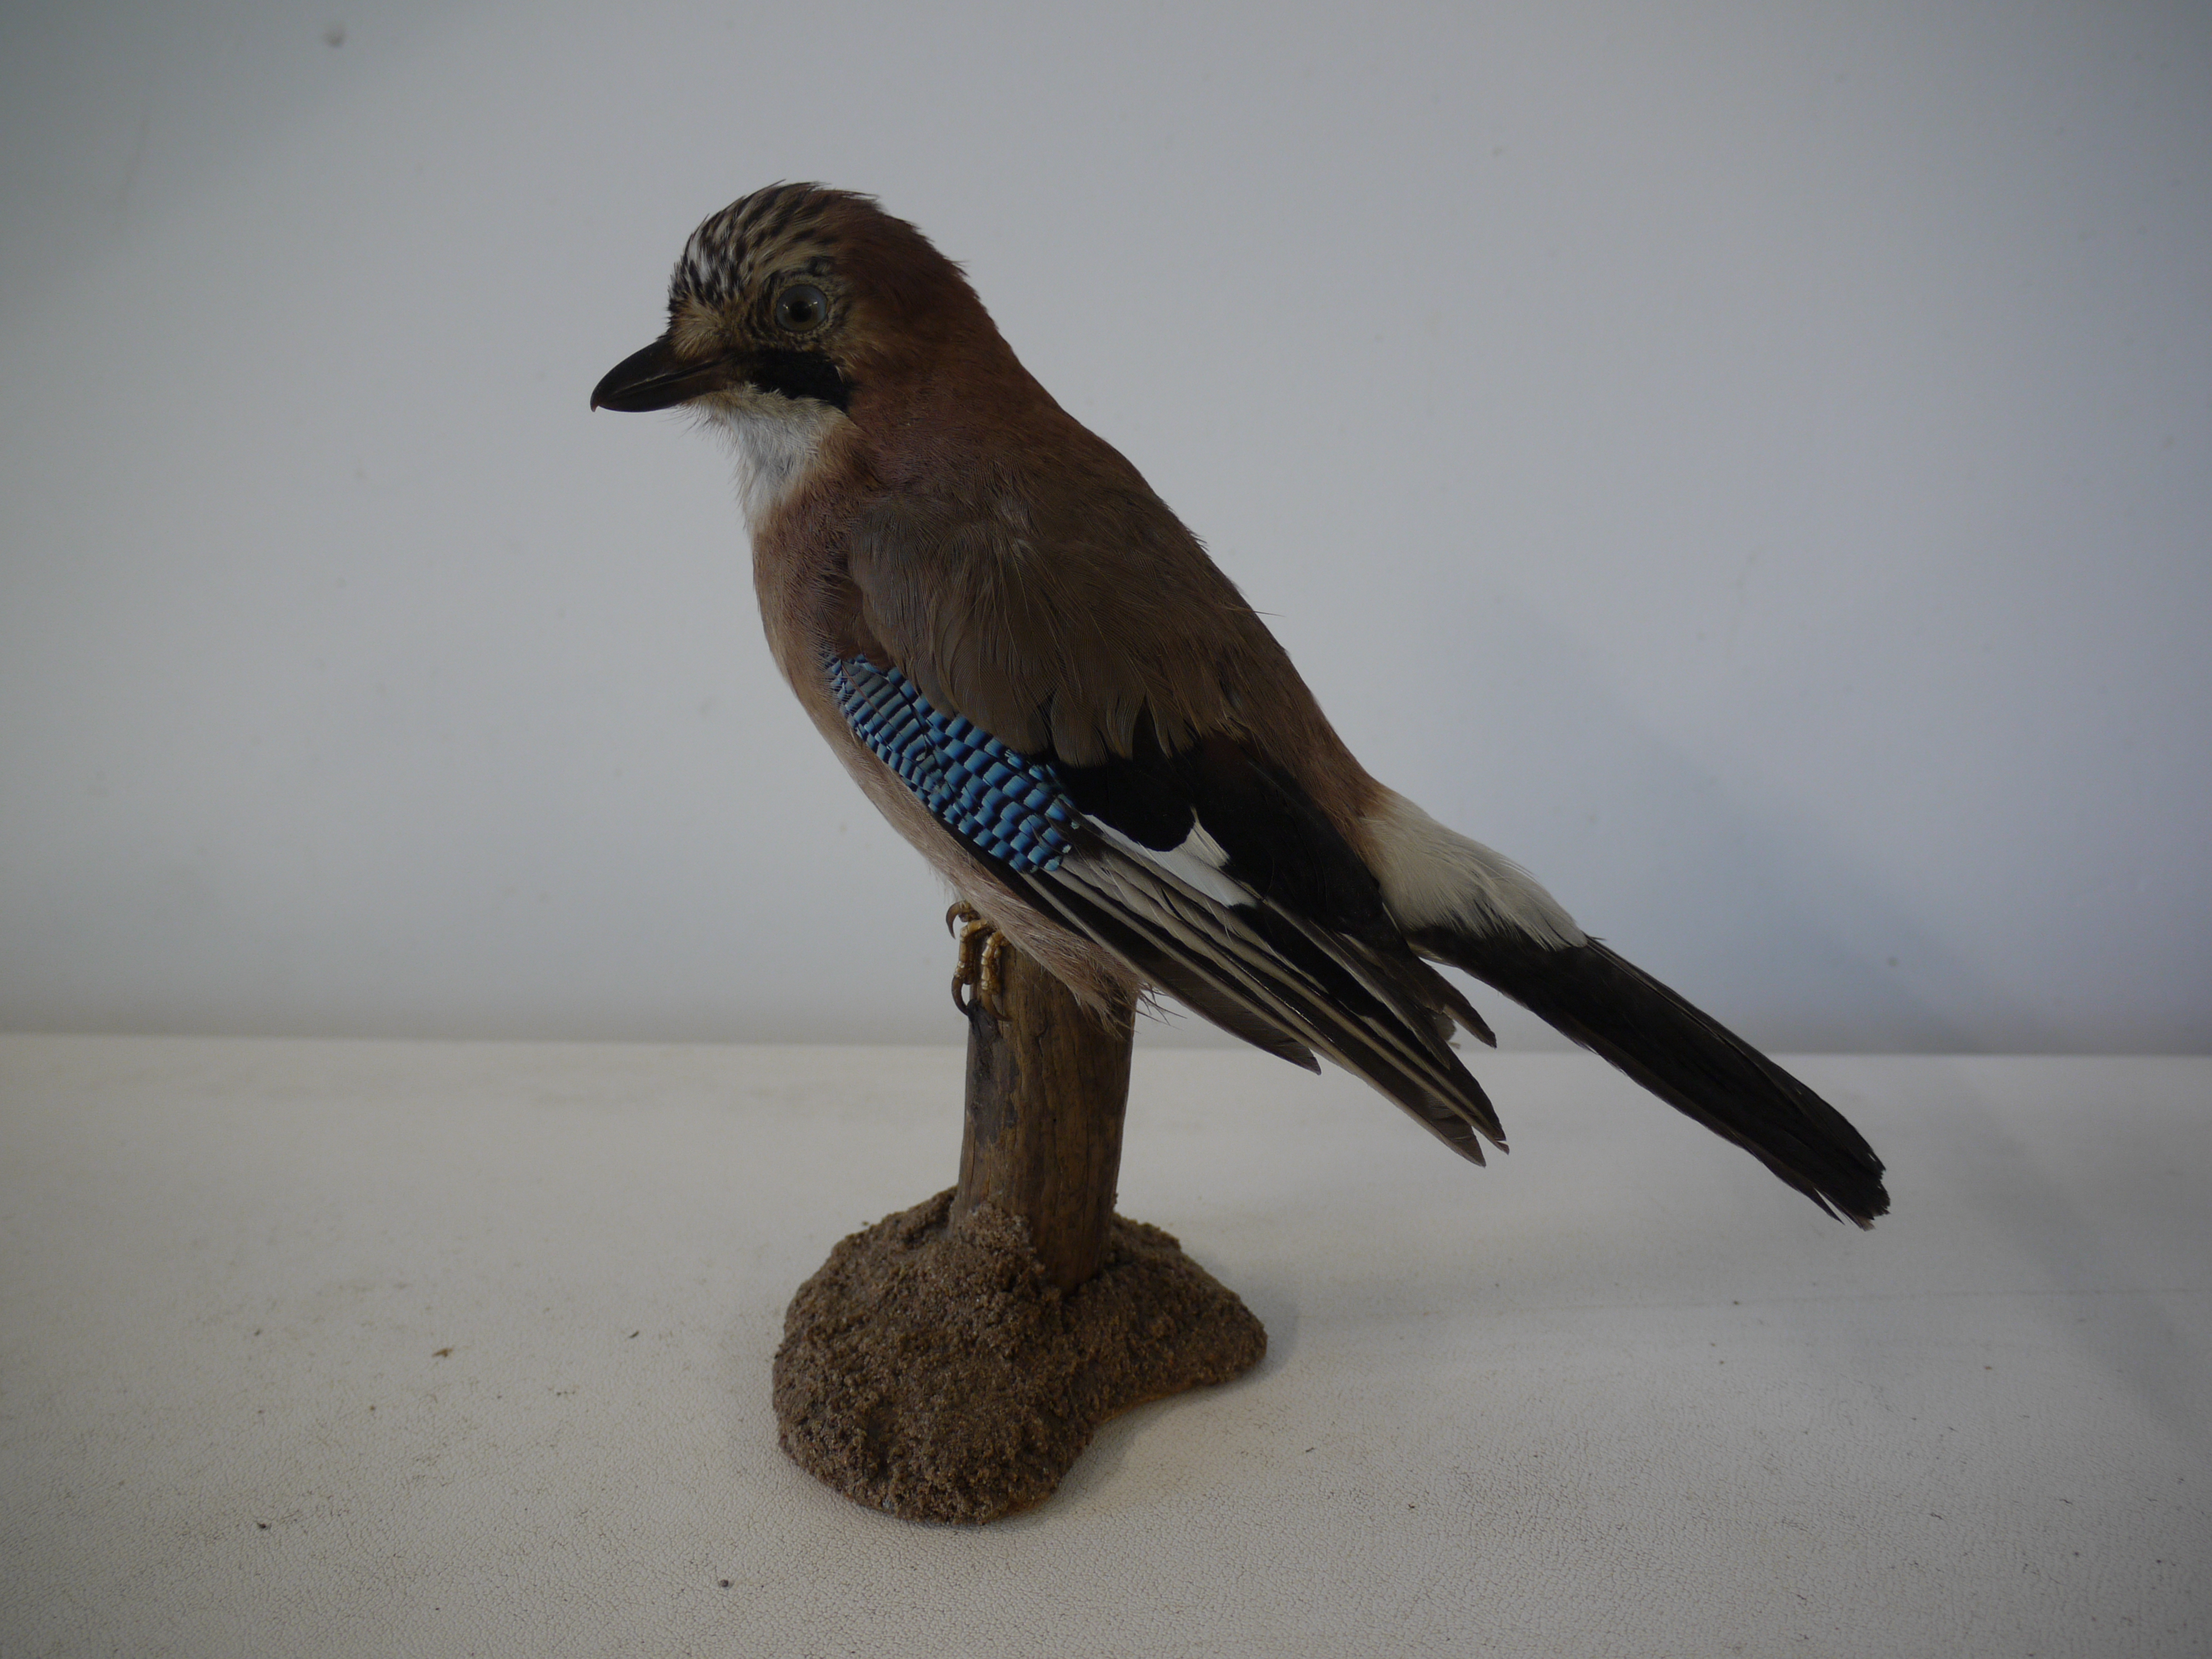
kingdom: Animalia
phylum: Chordata
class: Aves
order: Passeriformes
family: Corvidae
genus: Garrulus
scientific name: Garrulus glandarius
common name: Eurasian jay
